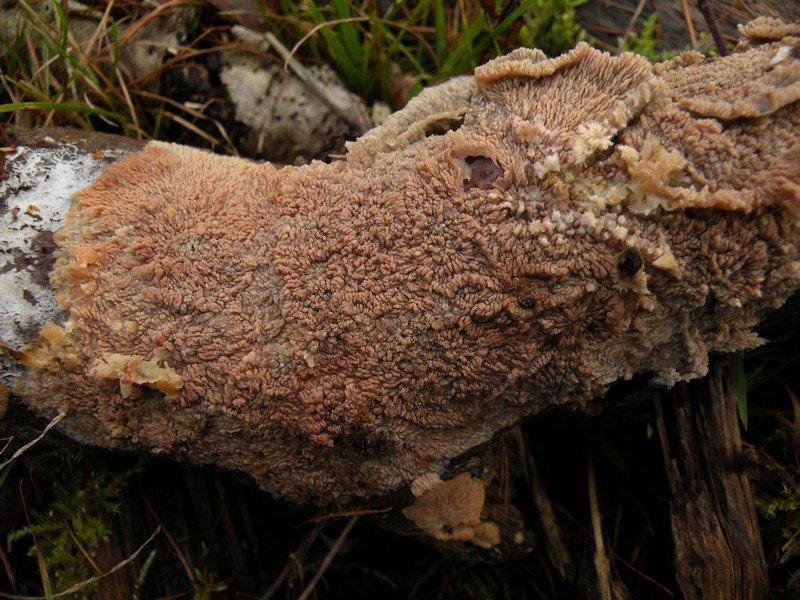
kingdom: Fungi
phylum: Basidiomycota
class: Agaricomycetes
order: Polyporales
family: Meruliaceae
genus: Phlebia
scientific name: Phlebia radiata
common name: stråle-åresvamp
